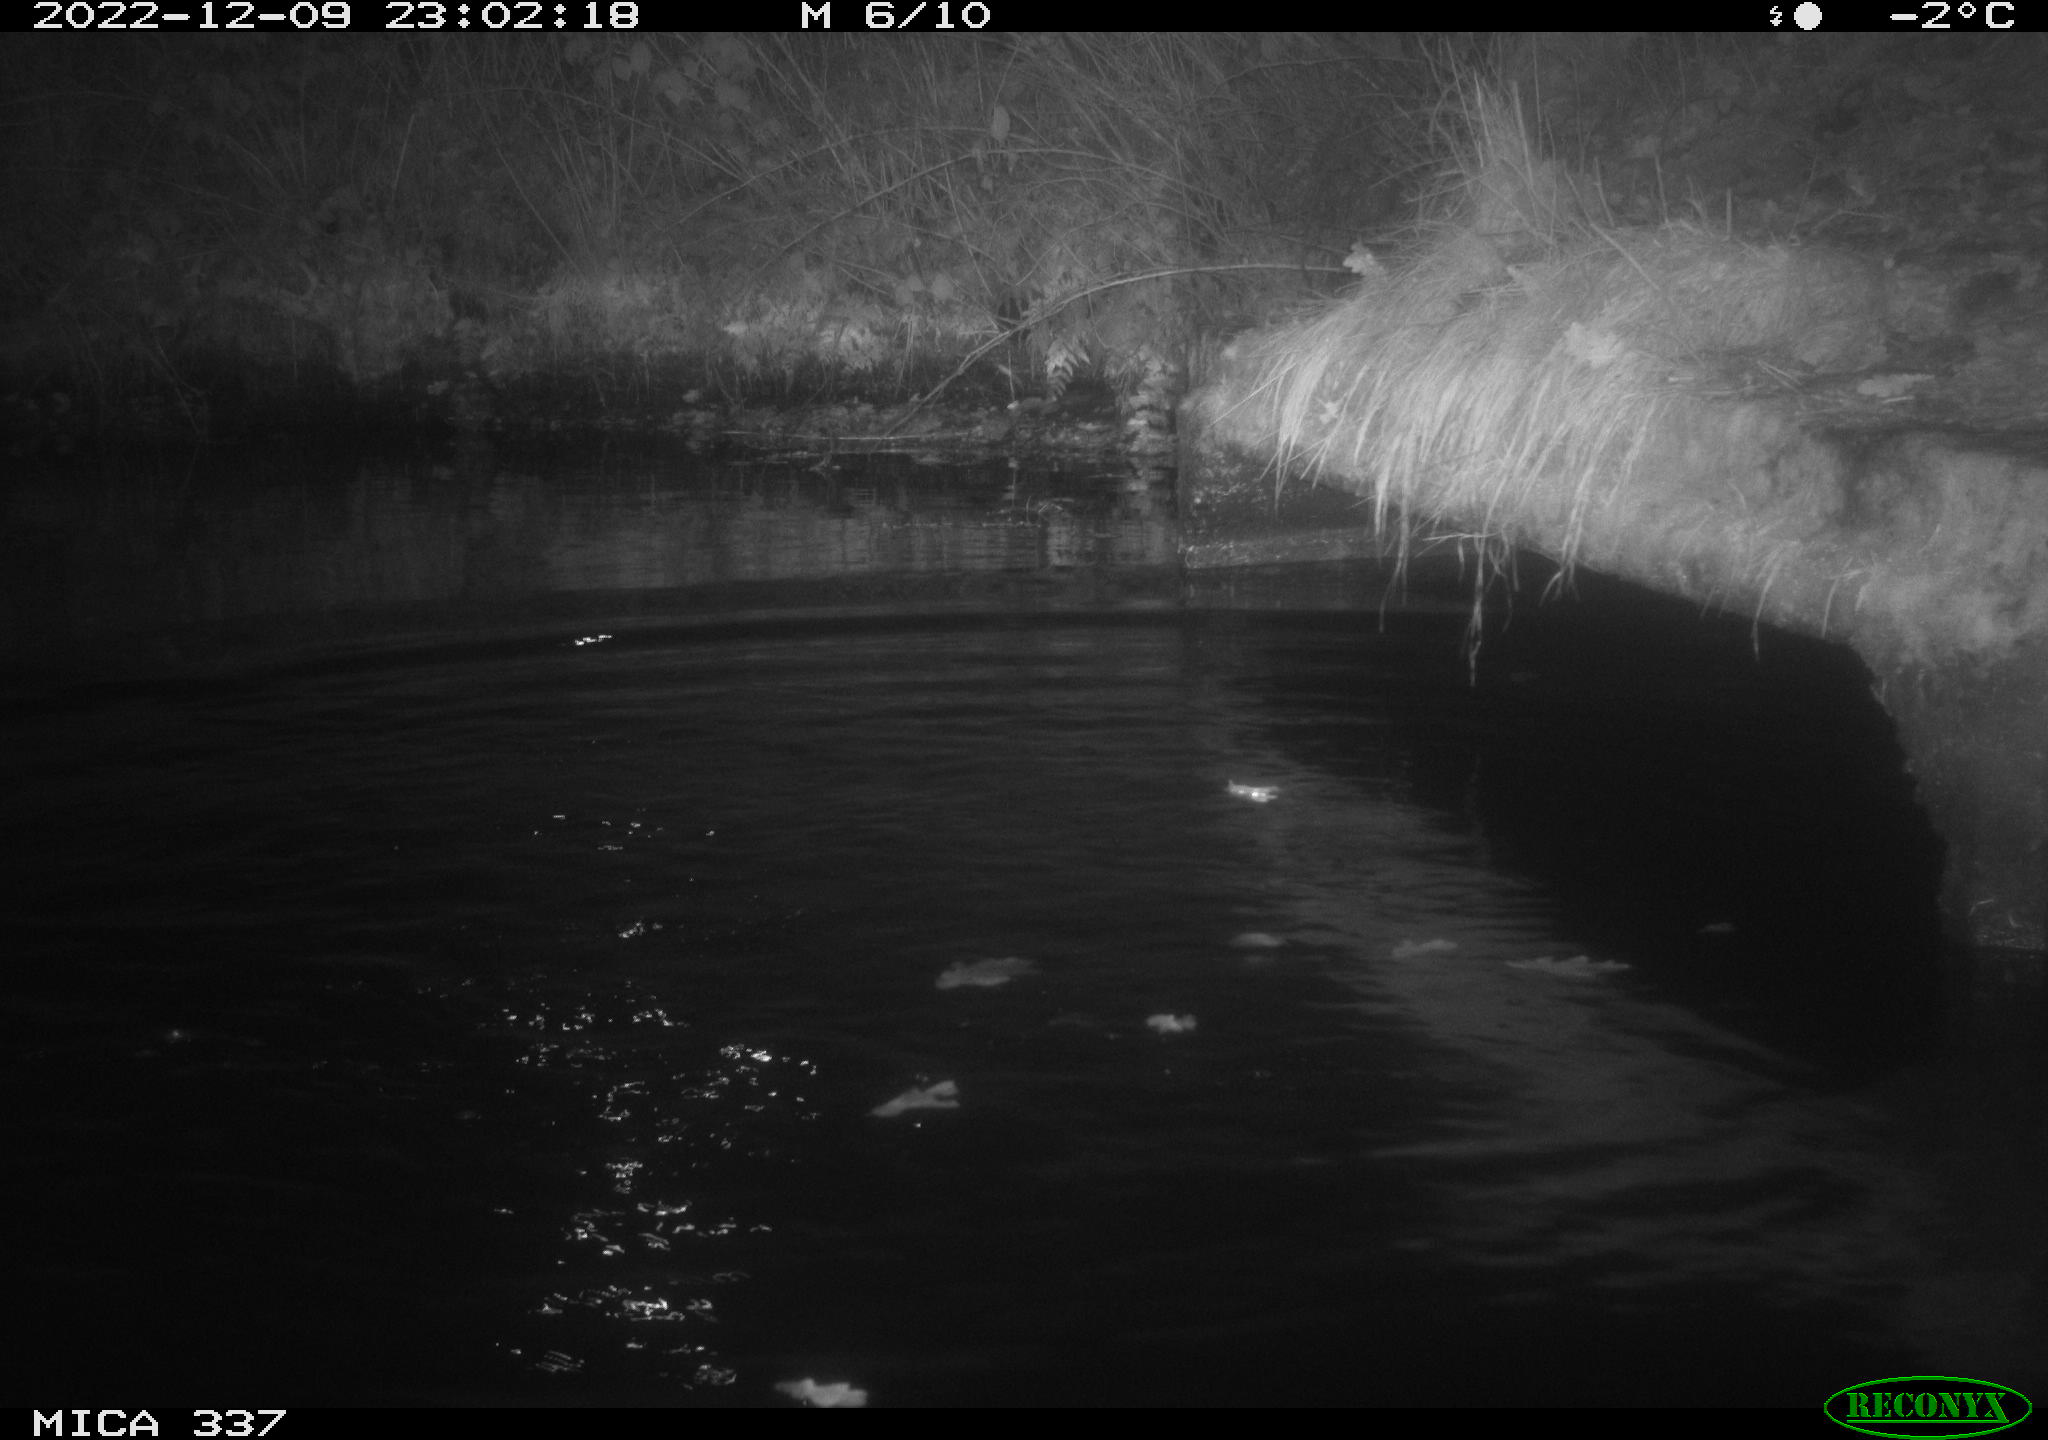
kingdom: Animalia
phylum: Chordata
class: Aves
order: Anseriformes
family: Anatidae
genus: Anas
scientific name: Anas
